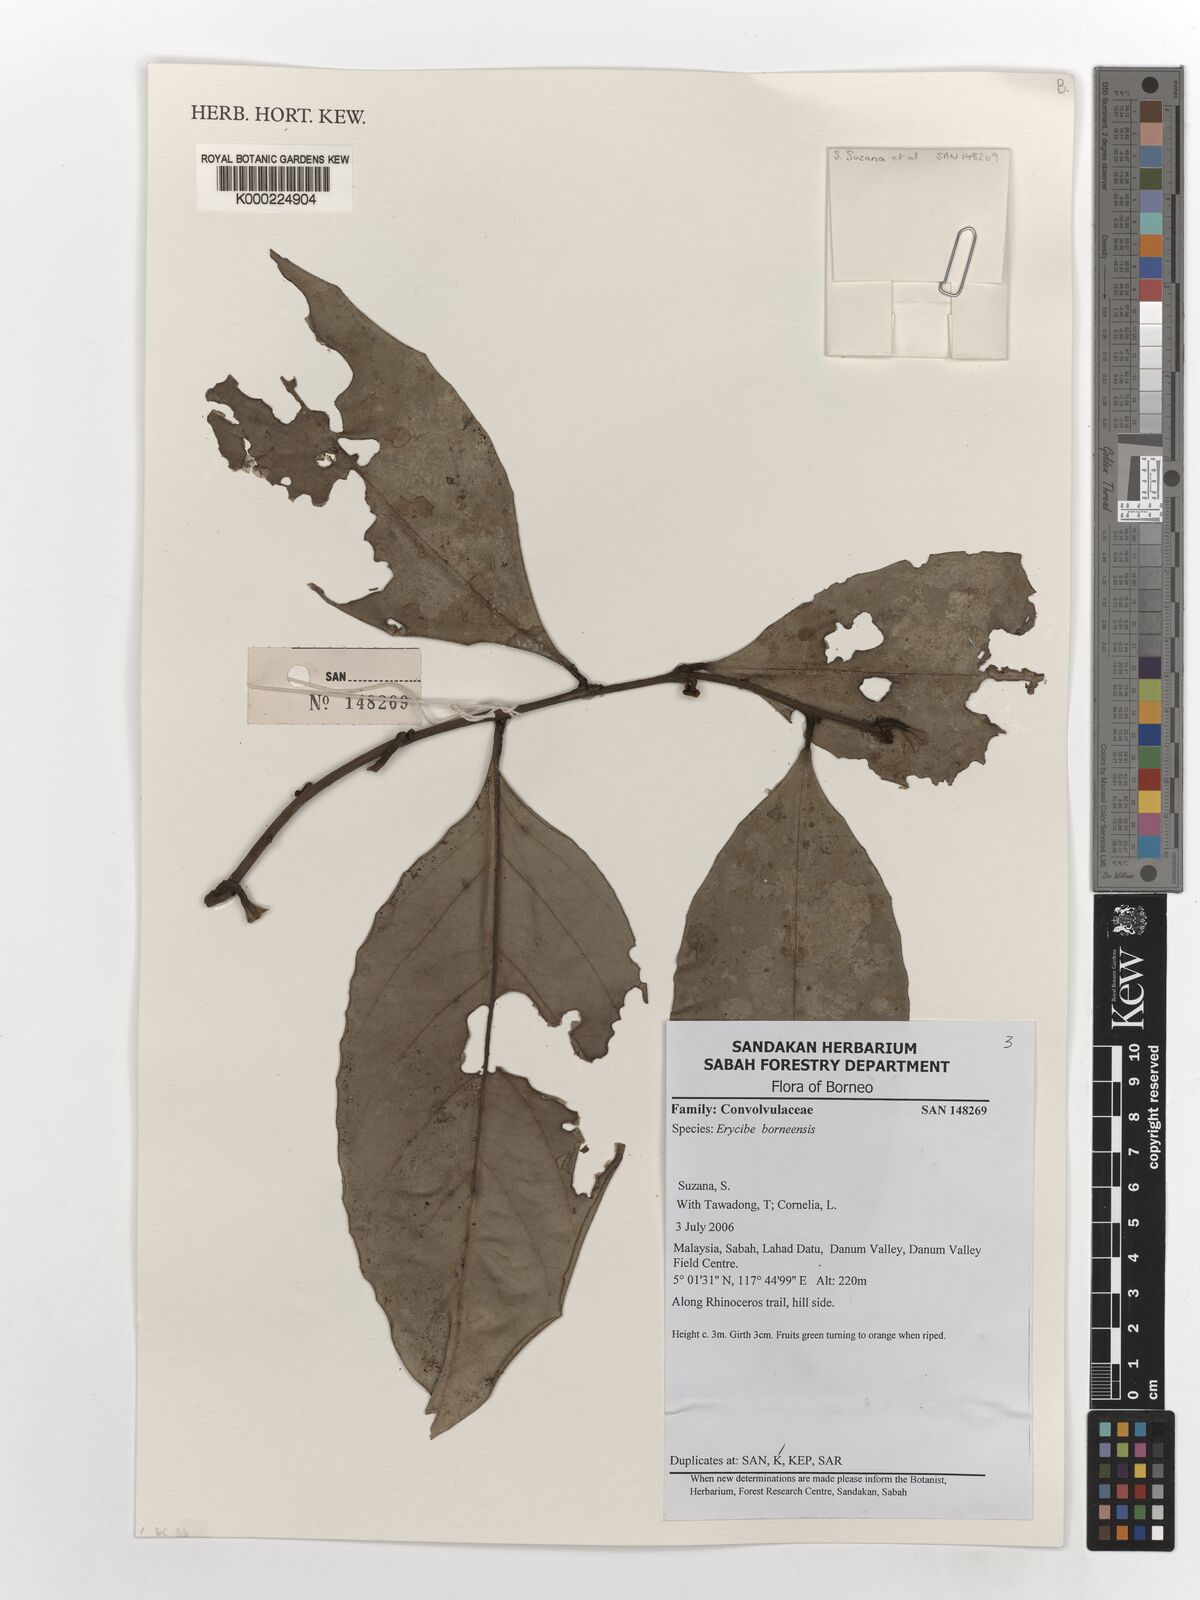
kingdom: Plantae
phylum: Tracheophyta
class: Magnoliopsida
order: Solanales
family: Convolvulaceae
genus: Erycibe
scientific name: Erycibe borneensis
